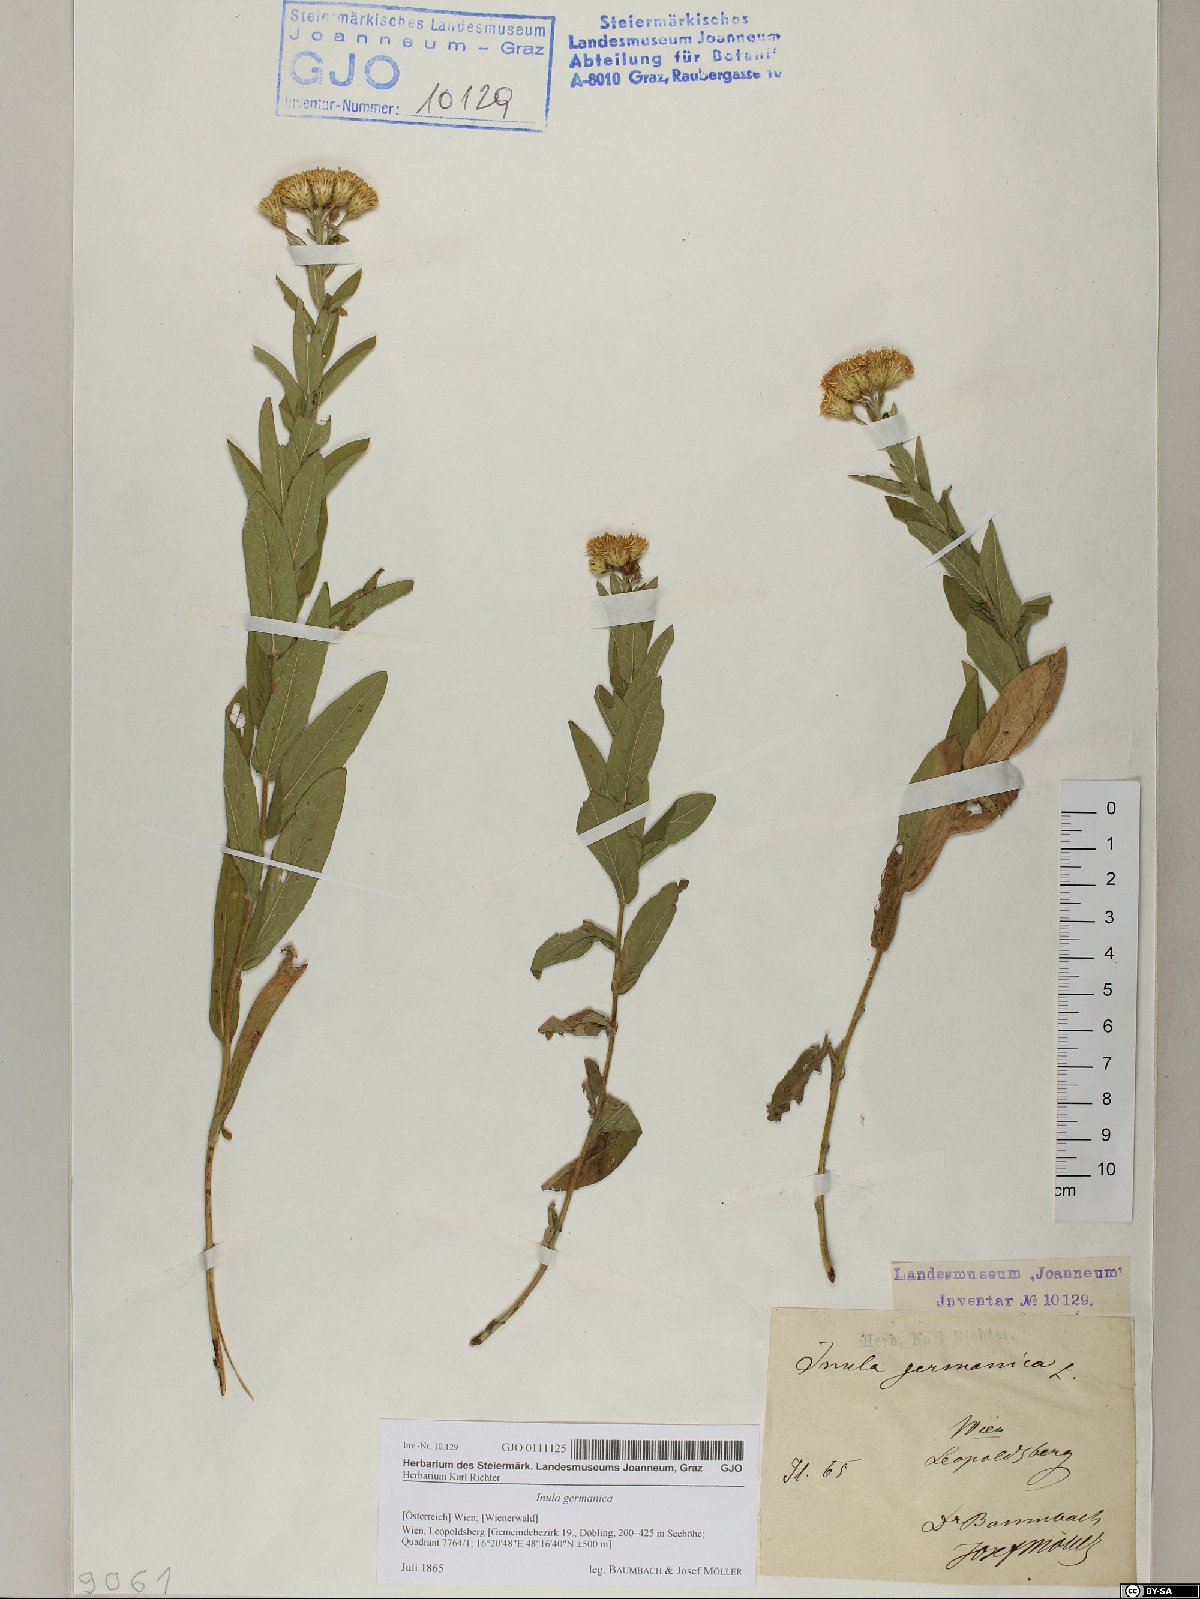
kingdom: Plantae
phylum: Tracheophyta
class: Magnoliopsida
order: Asterales
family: Asteraceae
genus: Pentanema
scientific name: Pentanema germanicum
